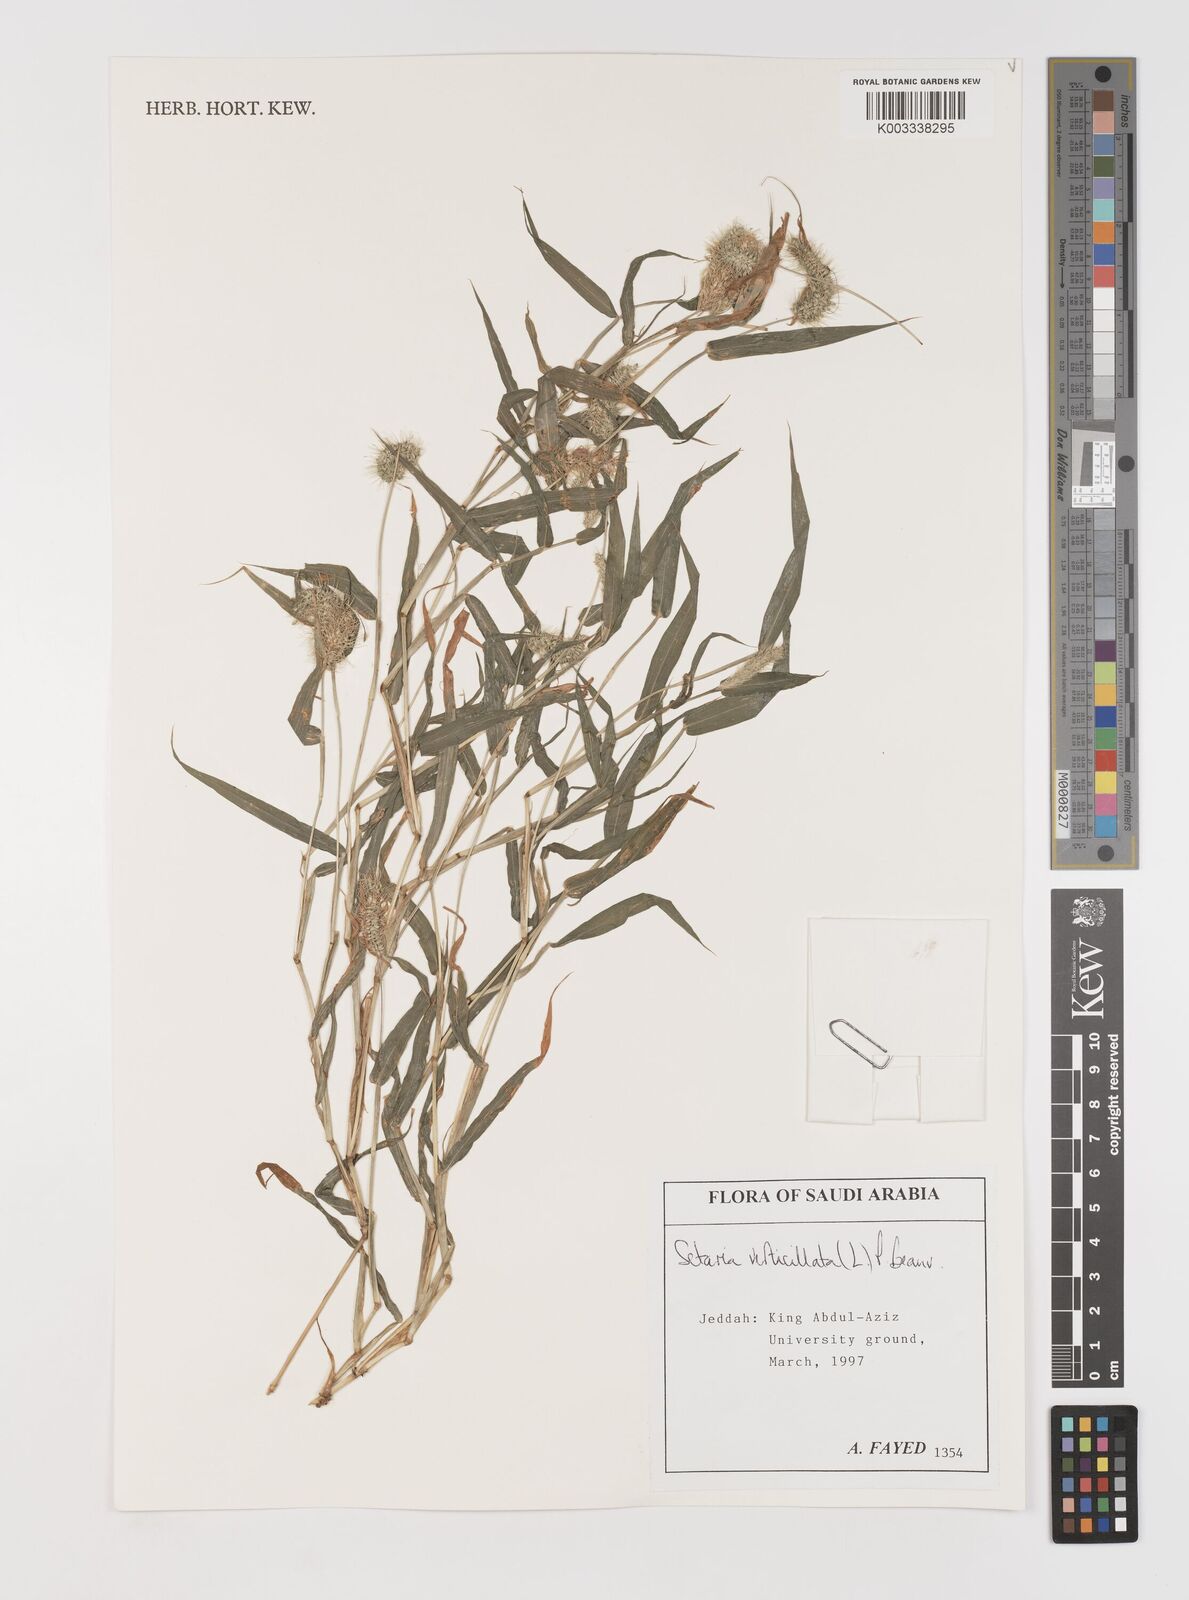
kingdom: Plantae
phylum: Tracheophyta
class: Liliopsida
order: Poales
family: Poaceae
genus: Setaria
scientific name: Setaria verticillata
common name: Hooked bristlegrass
